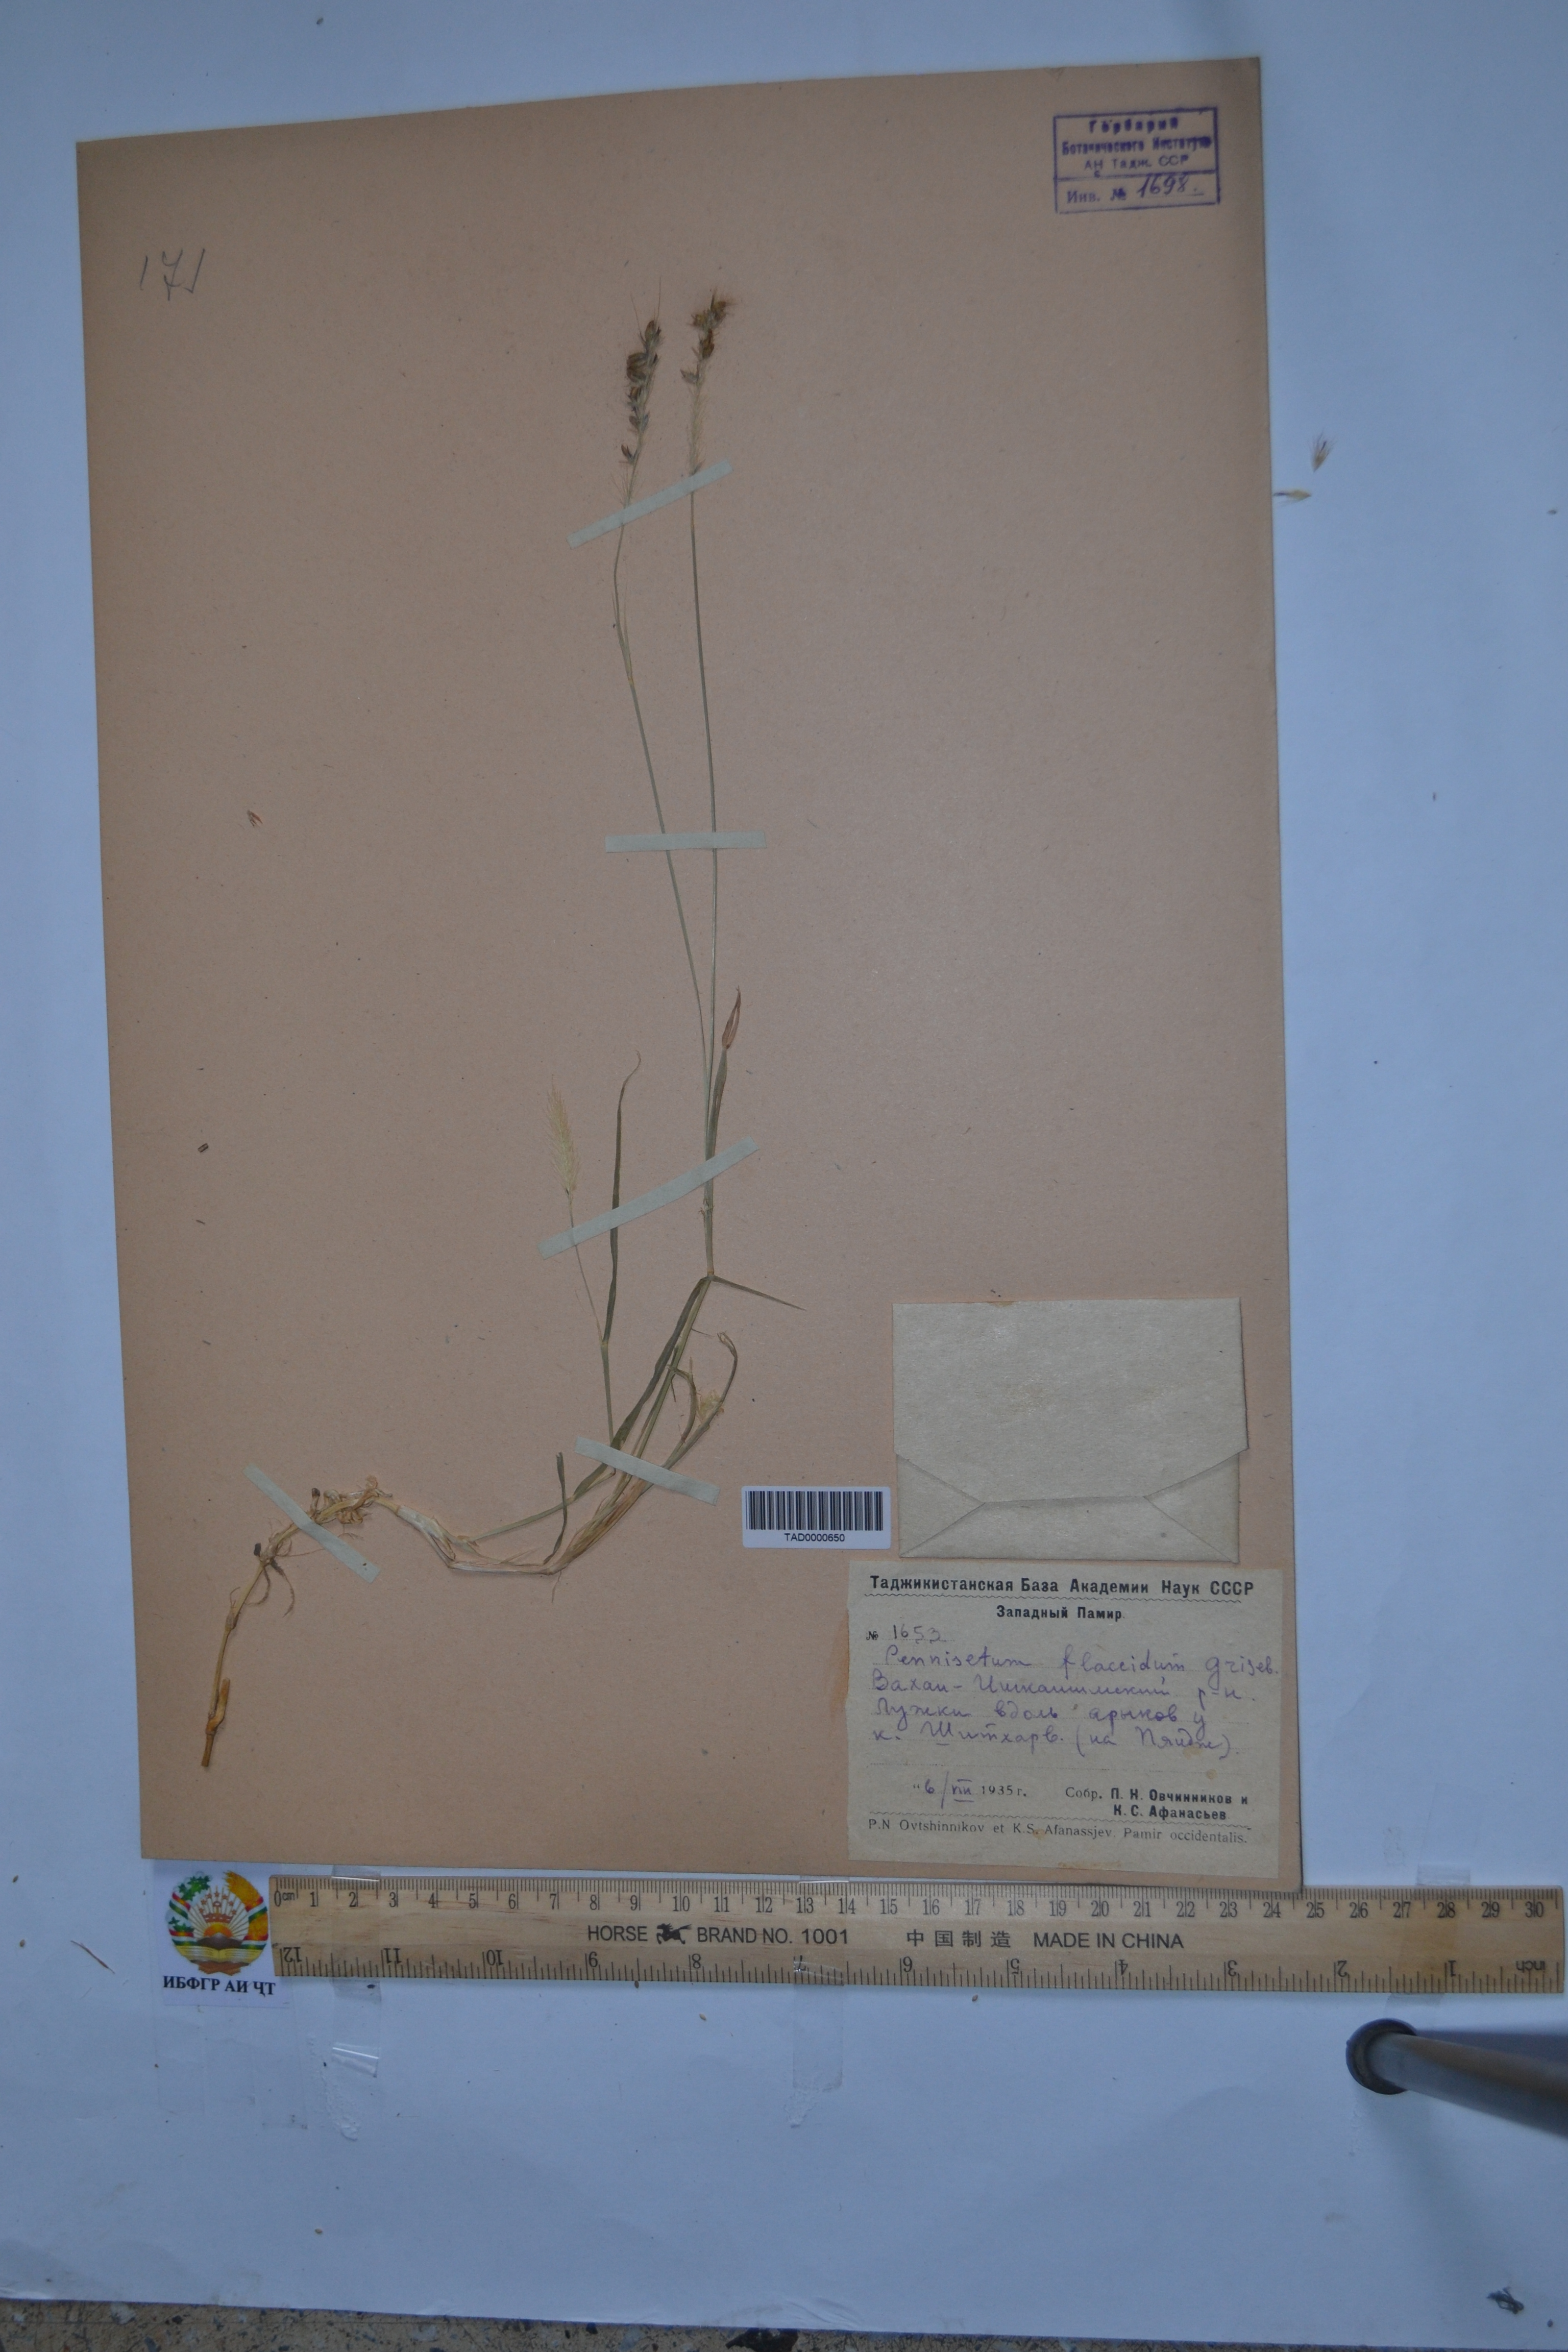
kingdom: Plantae
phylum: Tracheophyta
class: Liliopsida
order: Poales
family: Poaceae
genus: Cenchrus
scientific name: Cenchrus flaccidus
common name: Flaccid grass
